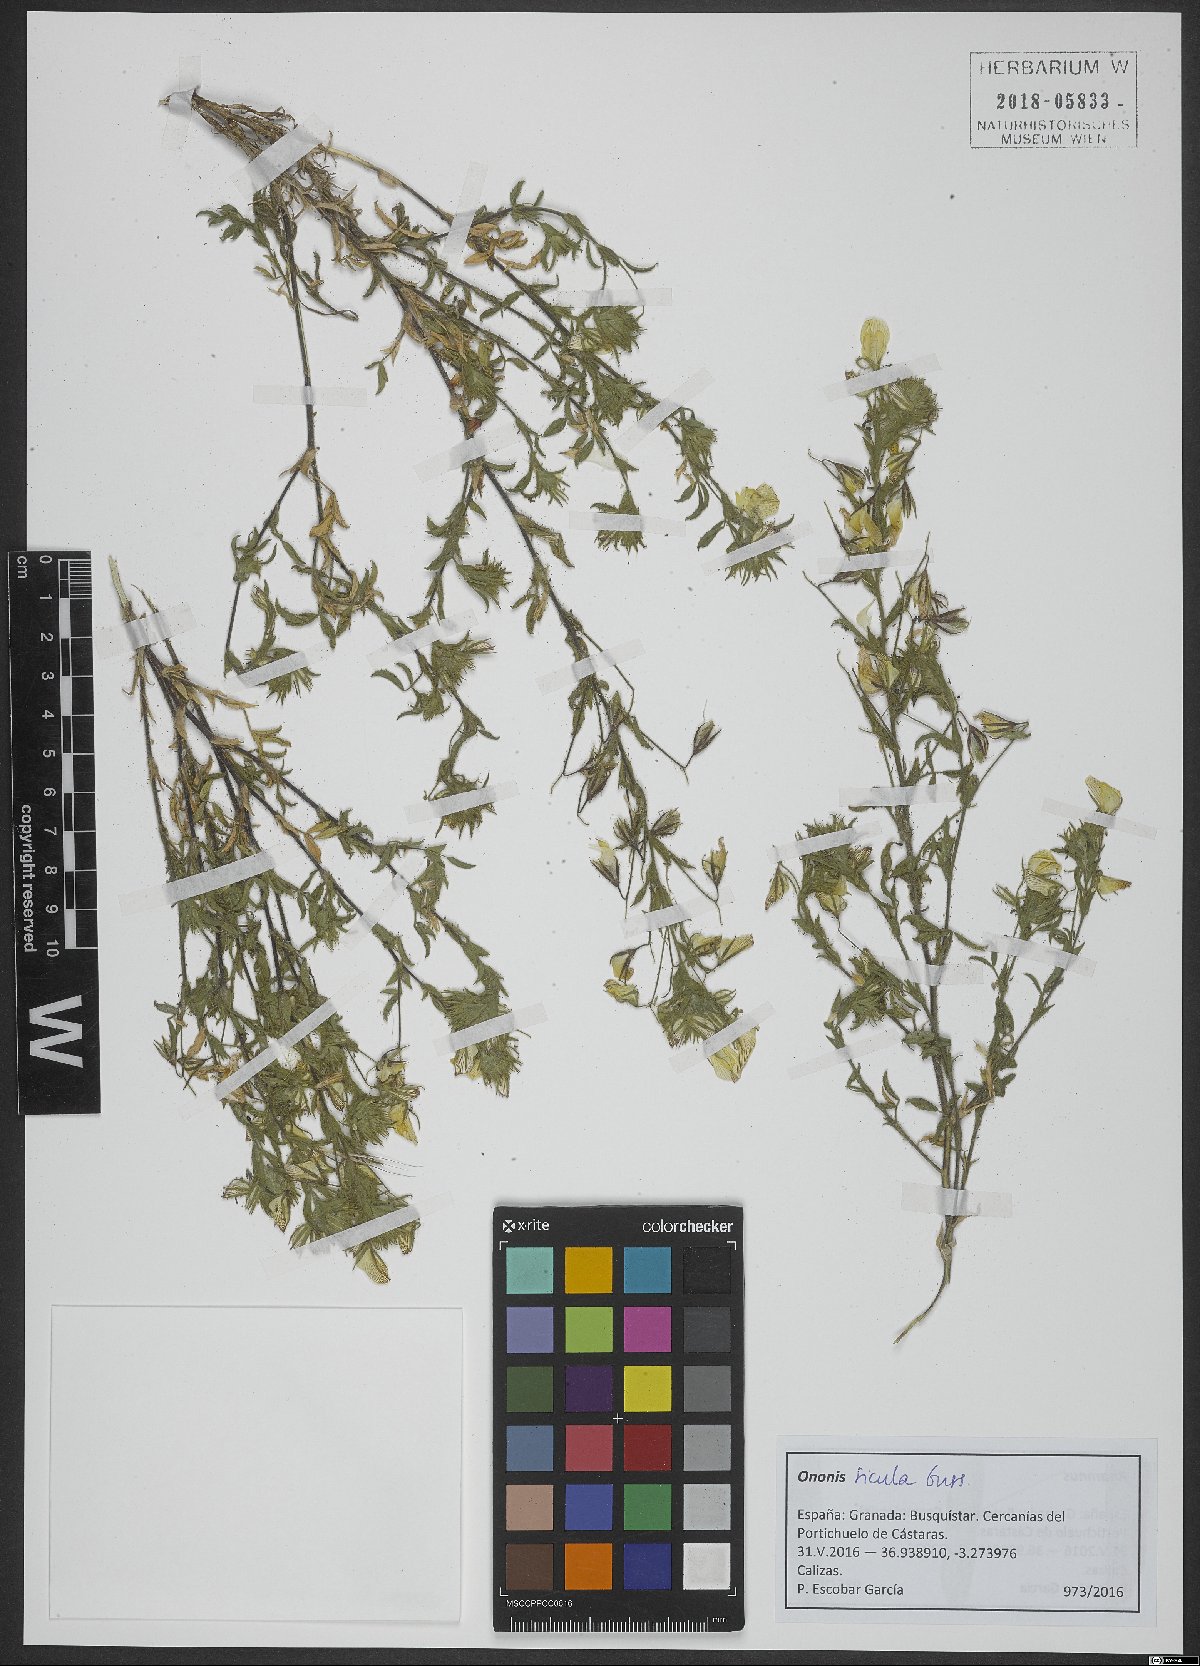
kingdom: Plantae
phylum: Tracheophyta
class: Magnoliopsida
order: Fabales
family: Fabaceae
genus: Ononis
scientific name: Ononis sicula
